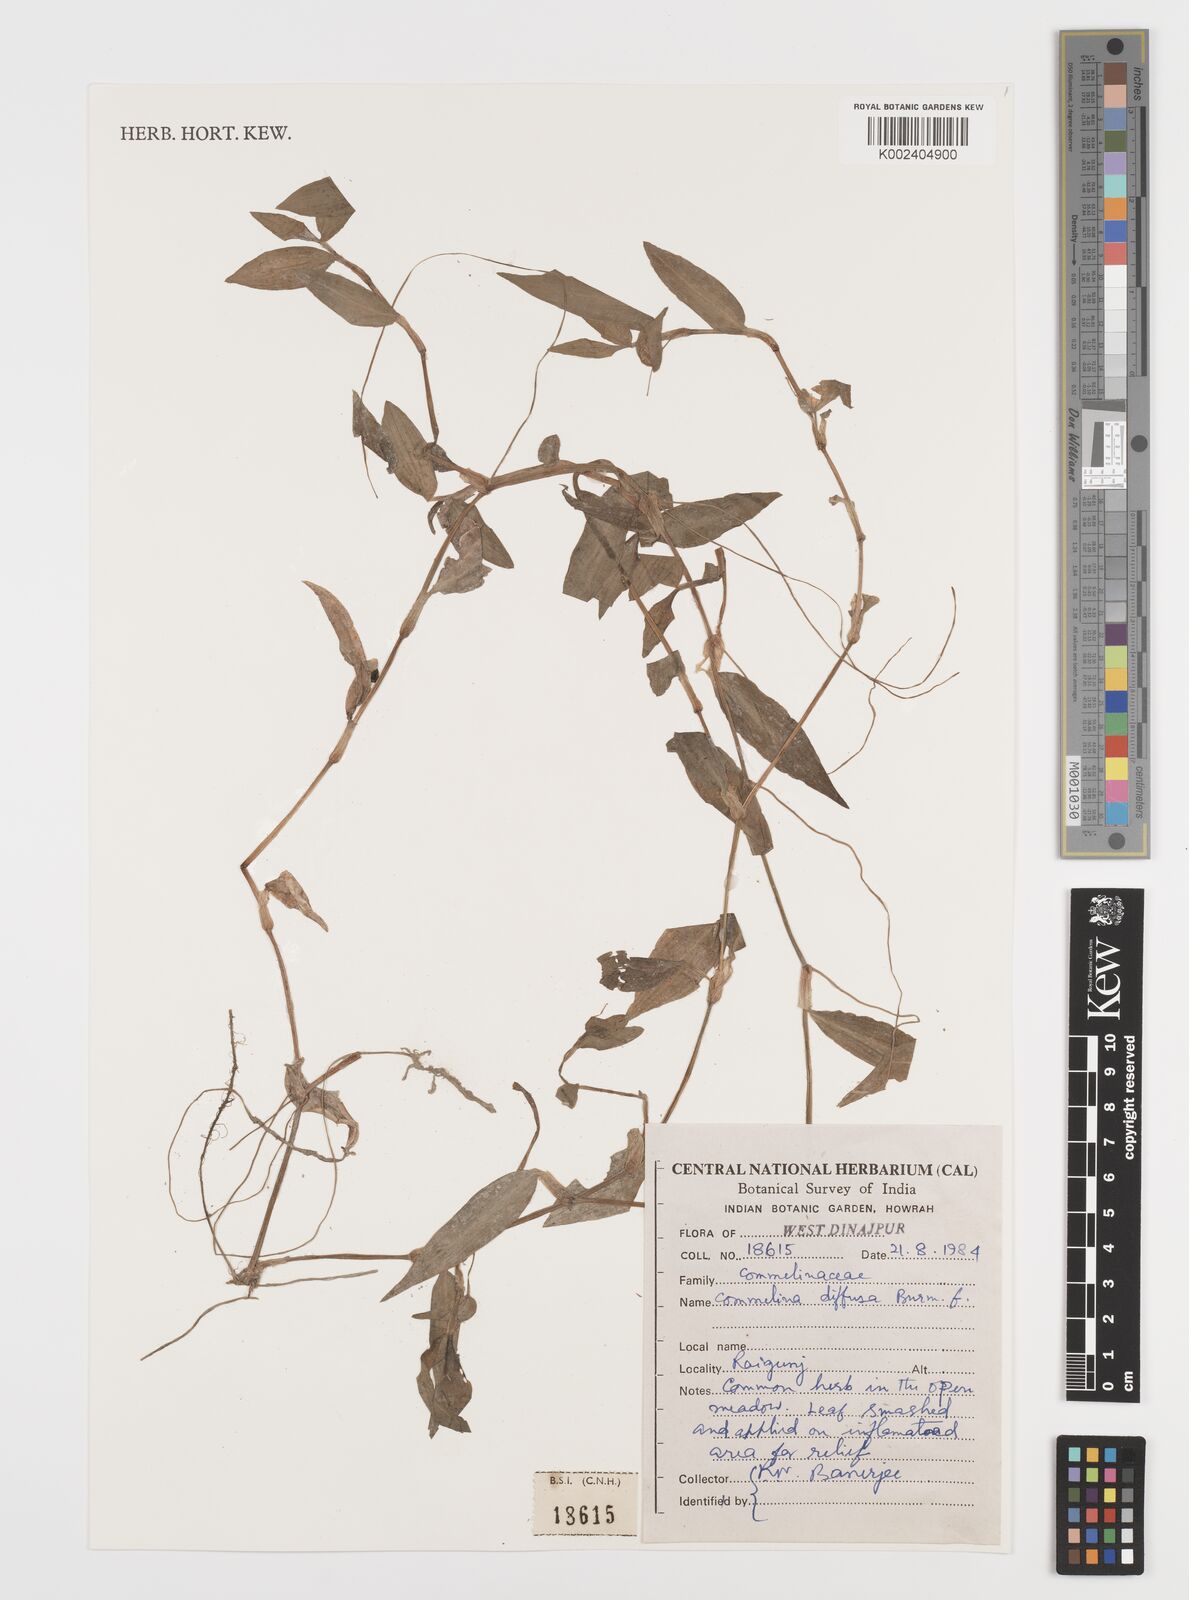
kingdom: Plantae
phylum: Tracheophyta
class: Liliopsida
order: Commelinales
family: Commelinaceae
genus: Commelina
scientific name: Commelina diffusa
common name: Climbing dayflower
